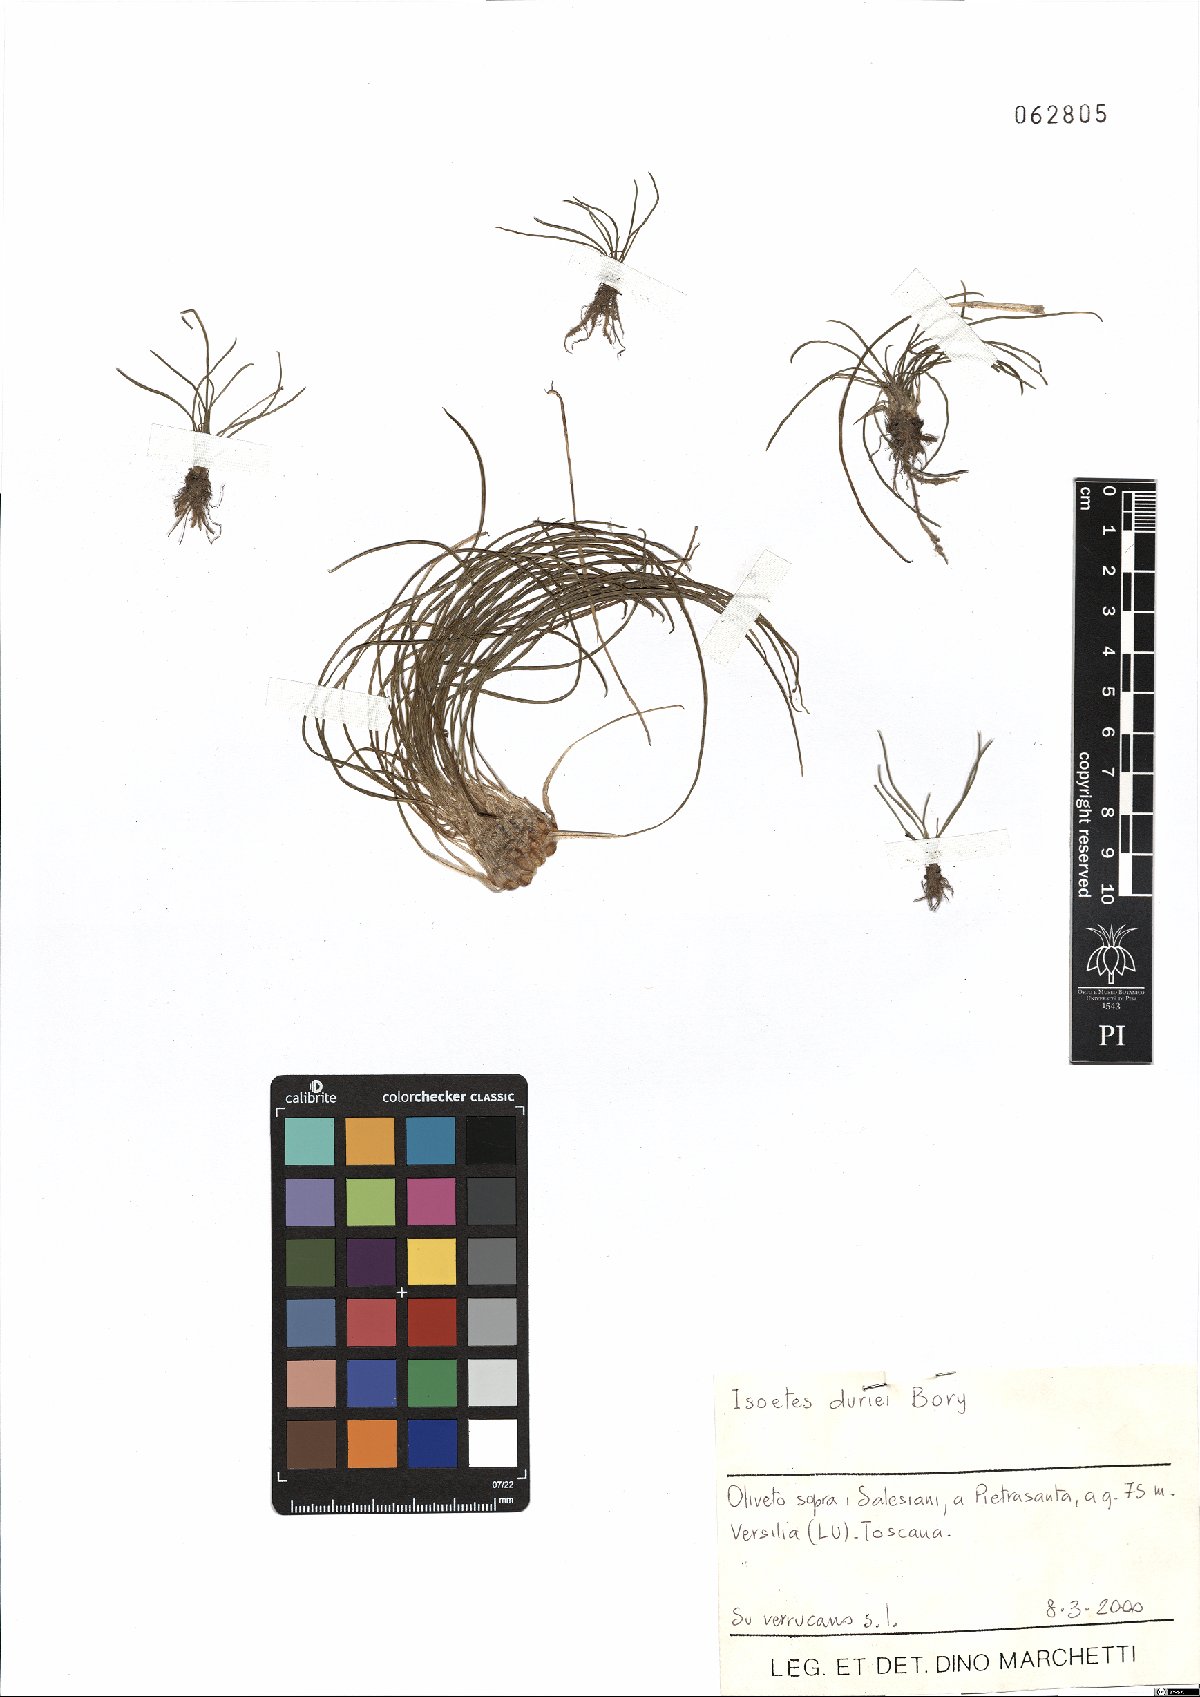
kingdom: Plantae
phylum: Tracheophyta
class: Lycopodiopsida
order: Isoetales
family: Isoetaceae
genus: Isoetes
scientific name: Isoetes duriei
